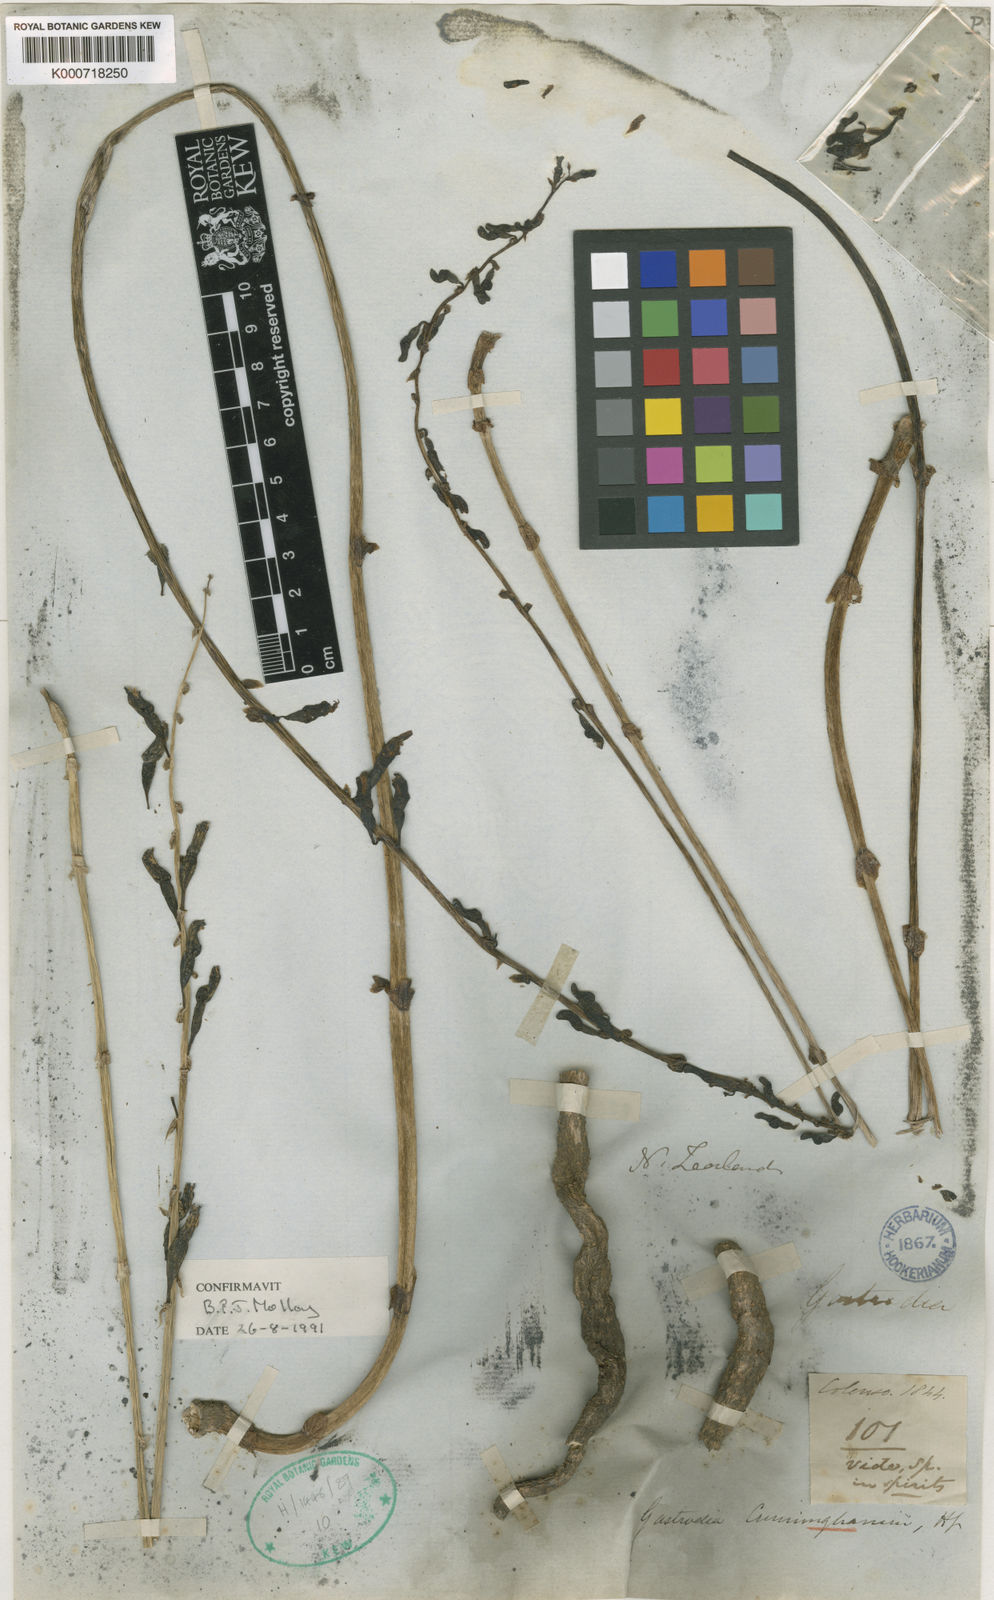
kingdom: Plantae
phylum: Tracheophyta
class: Liliopsida
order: Asparagales
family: Orchidaceae
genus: Gastrodia
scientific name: Gastrodia cunninghamii
